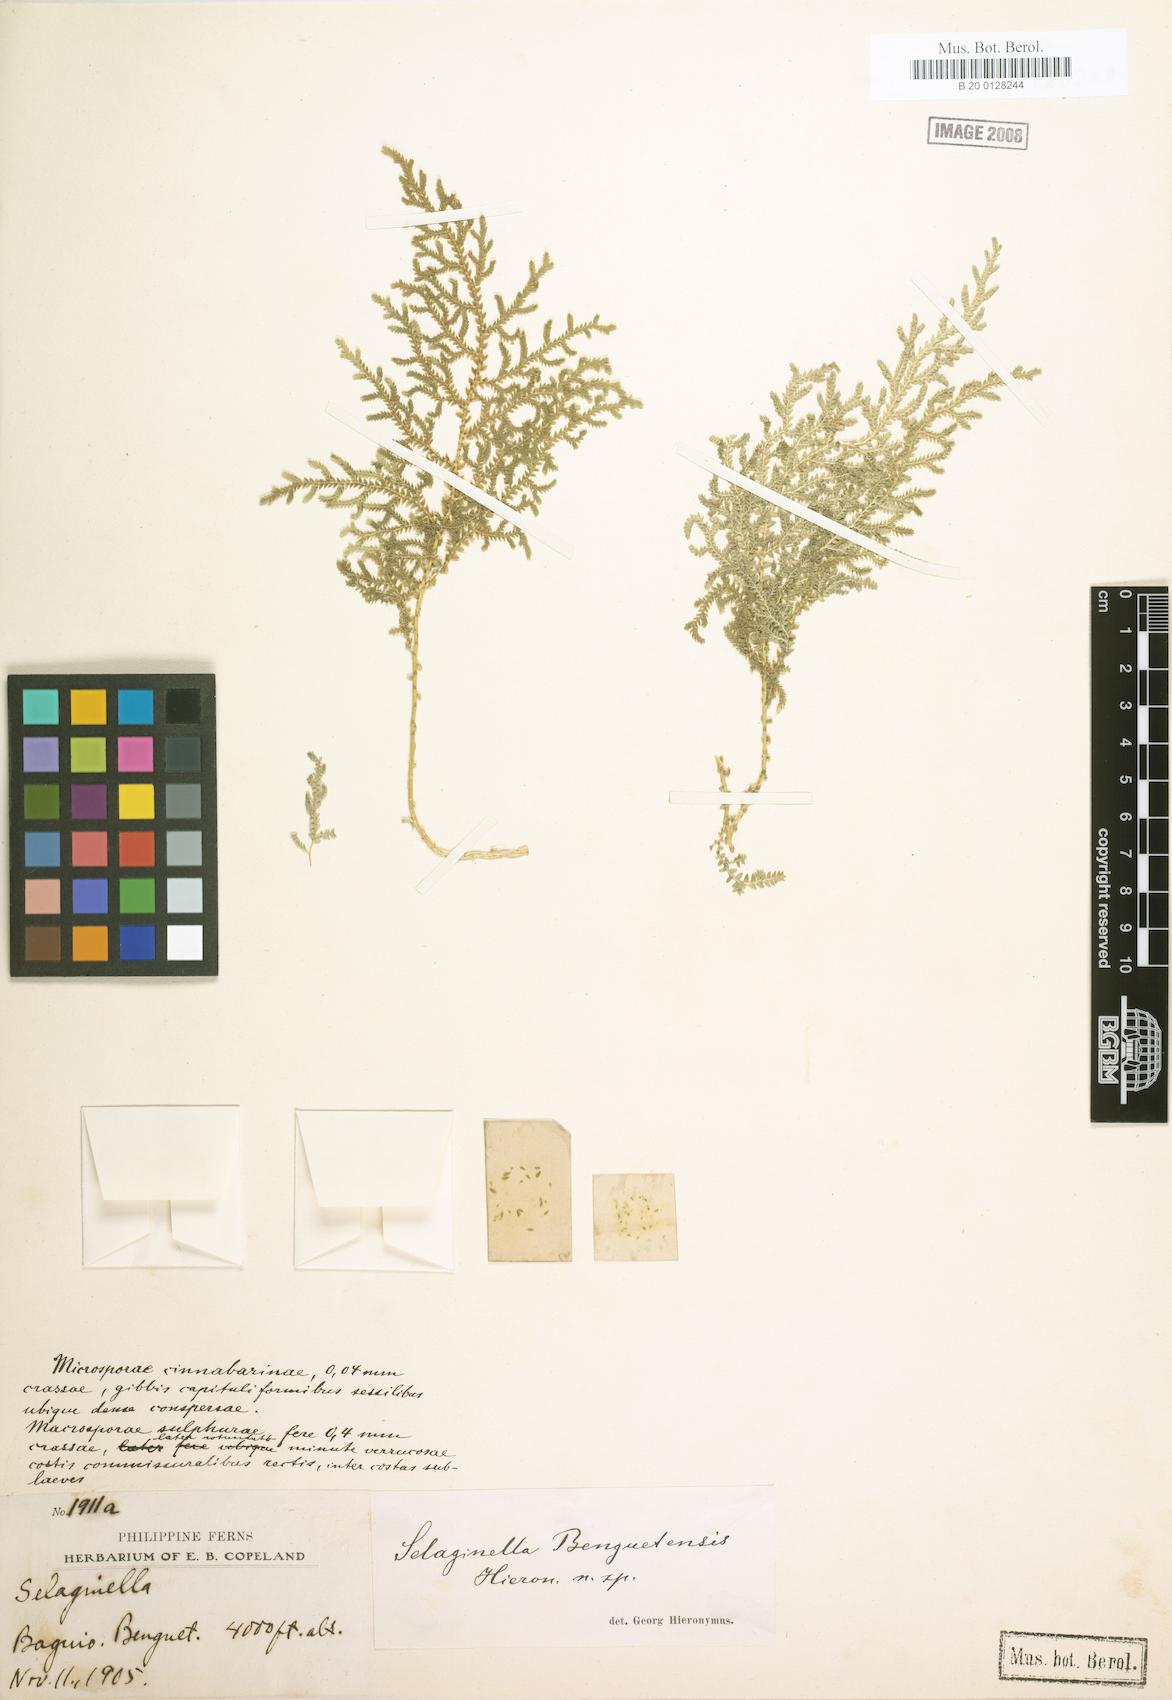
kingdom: Plantae
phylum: Tracheophyta
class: Lycopodiopsida
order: Selaginellales
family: Selaginellaceae
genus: Selaginella
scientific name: Selaginella eschscholzii
